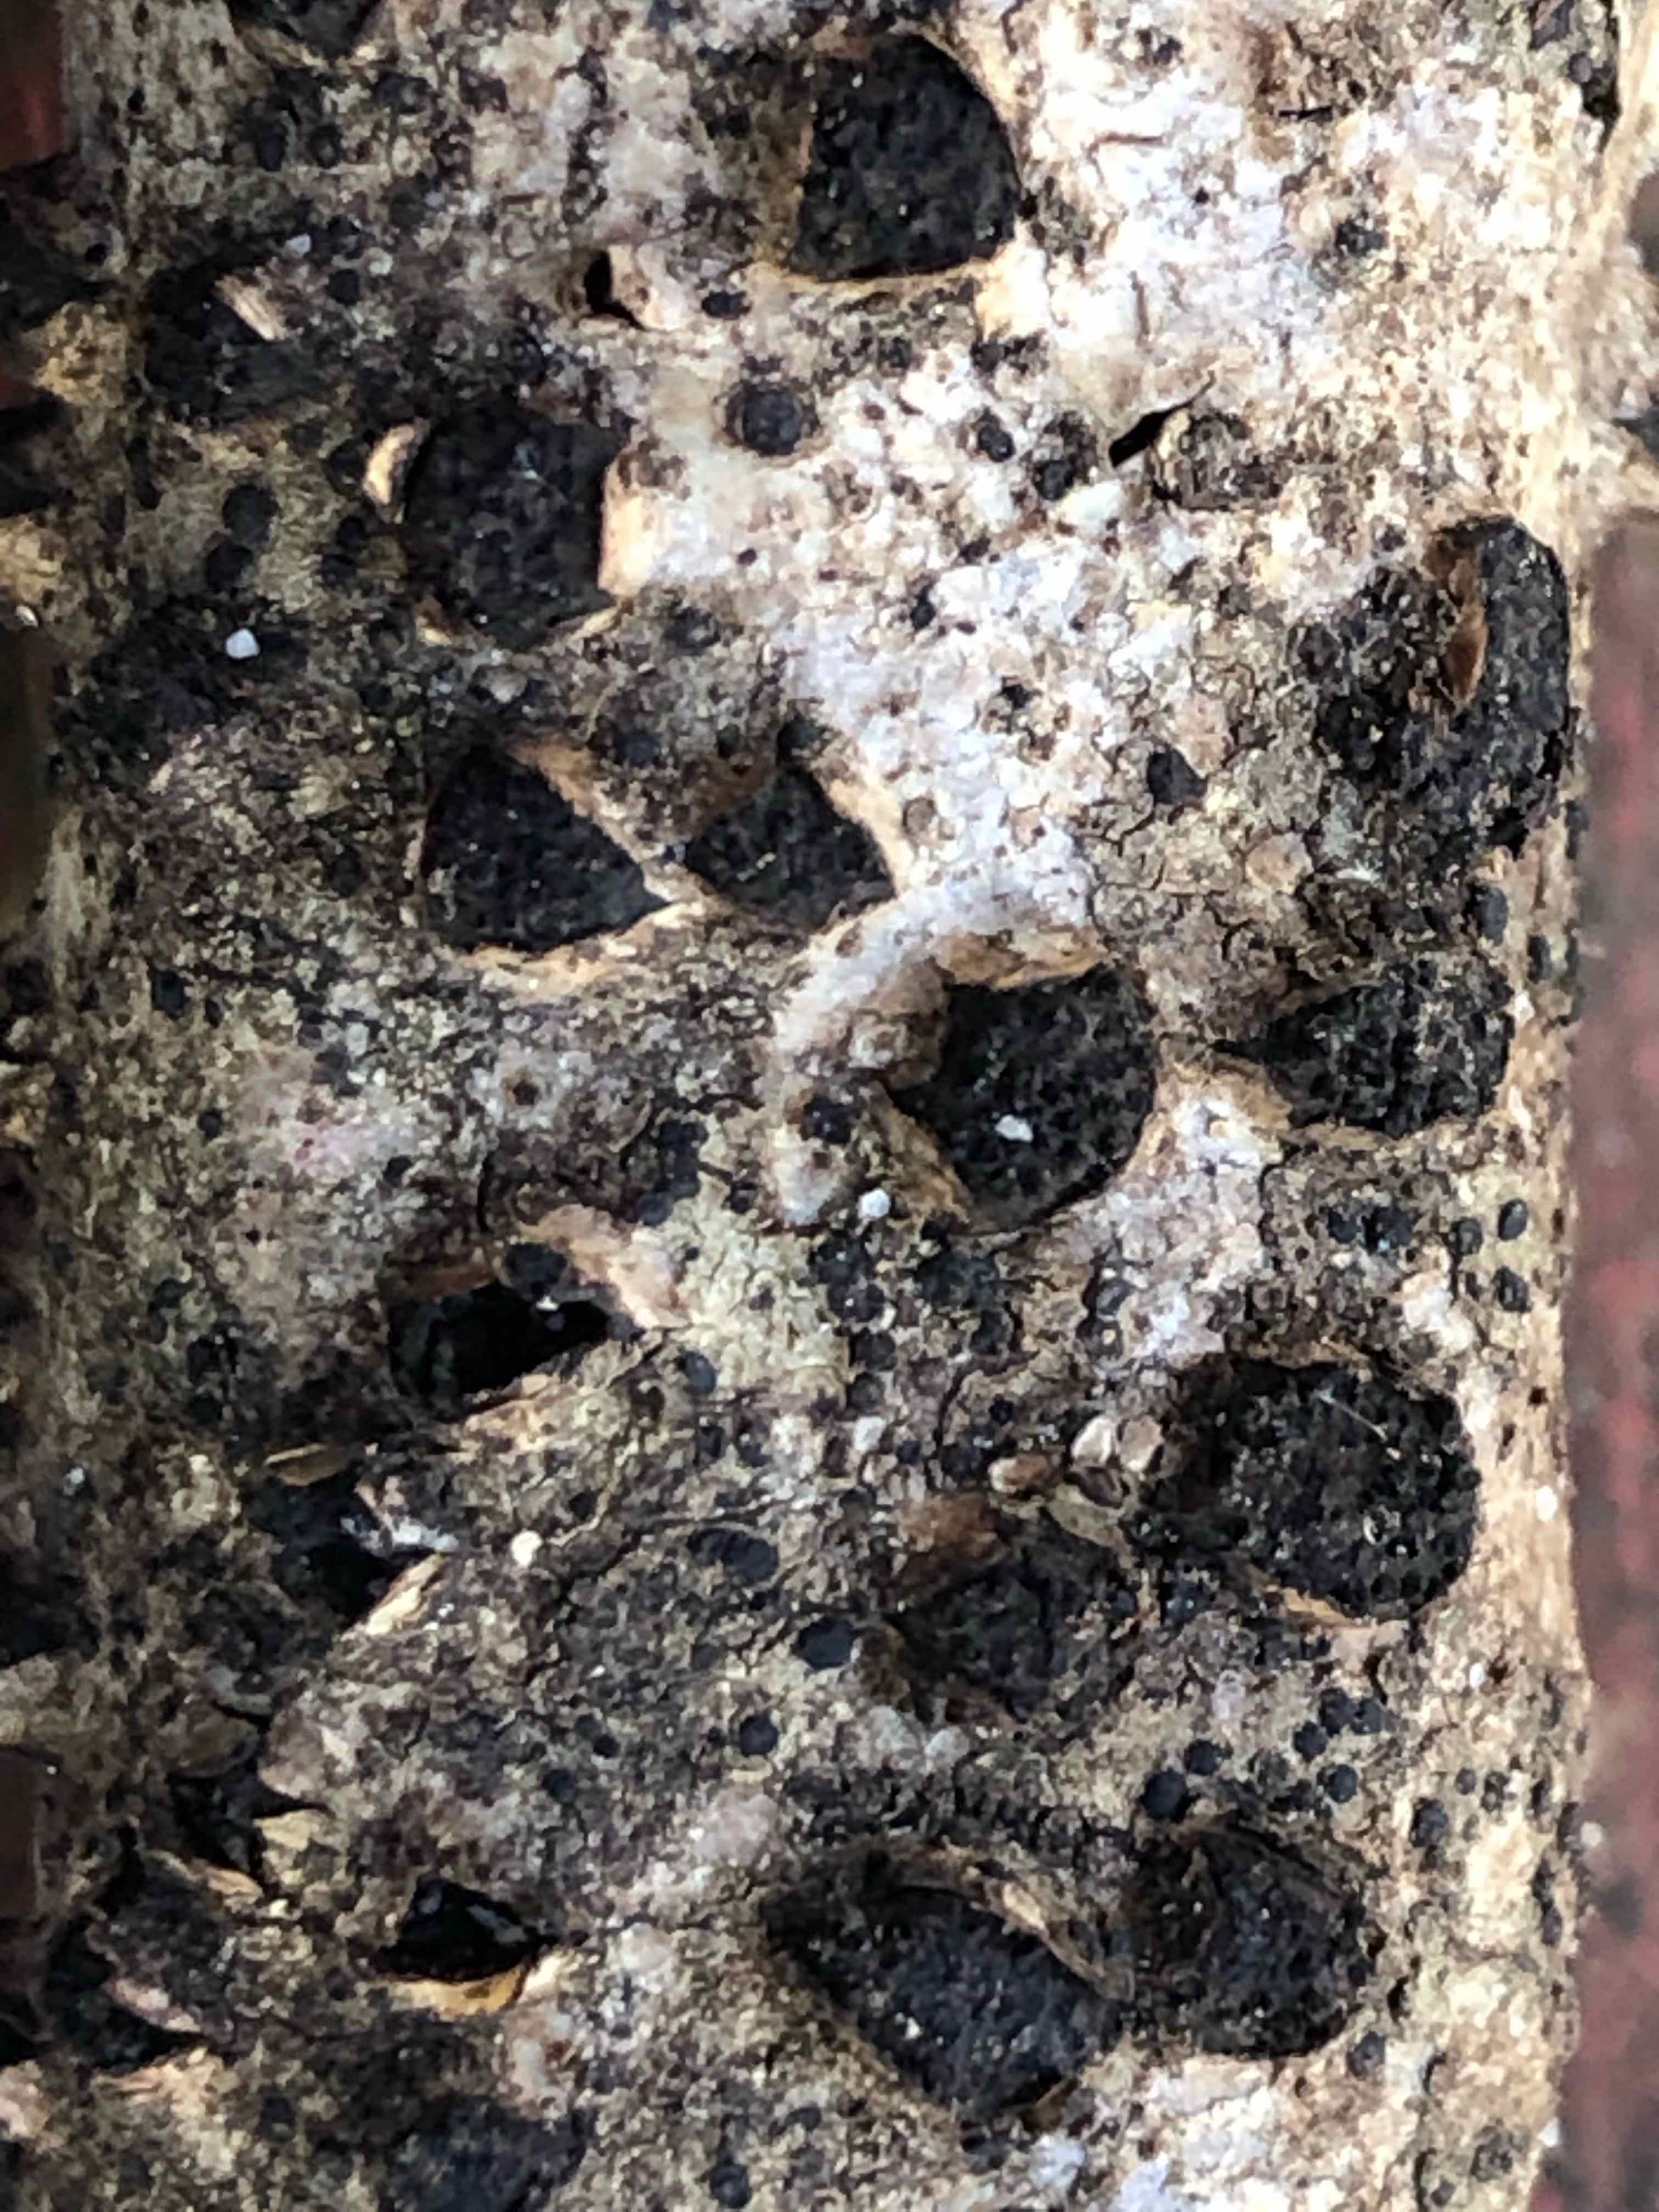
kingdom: Fungi
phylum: Ascomycota
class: Sordariomycetes
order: Xylariales
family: Diatrypaceae
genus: Diatrypella
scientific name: Diatrypella quercina
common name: ege-kulskorpe
